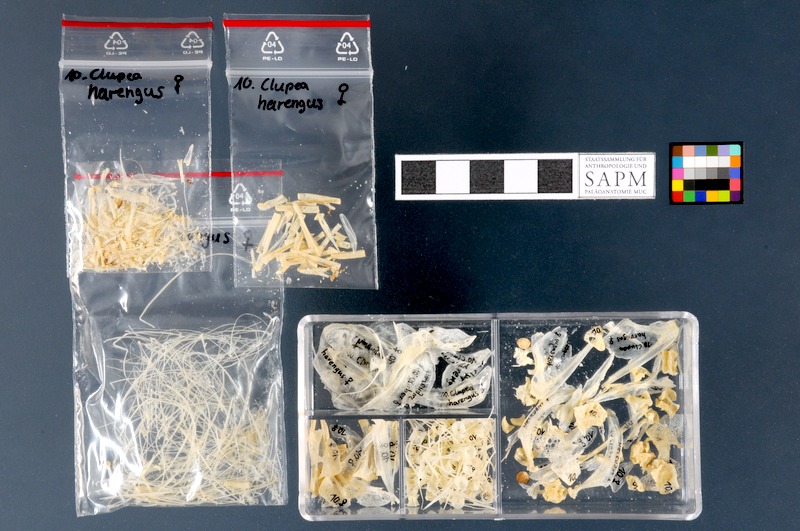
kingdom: Animalia
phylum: Chordata
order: Clupeiformes
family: Clupeidae
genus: Clupea
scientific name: Clupea harengus
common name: Herring
